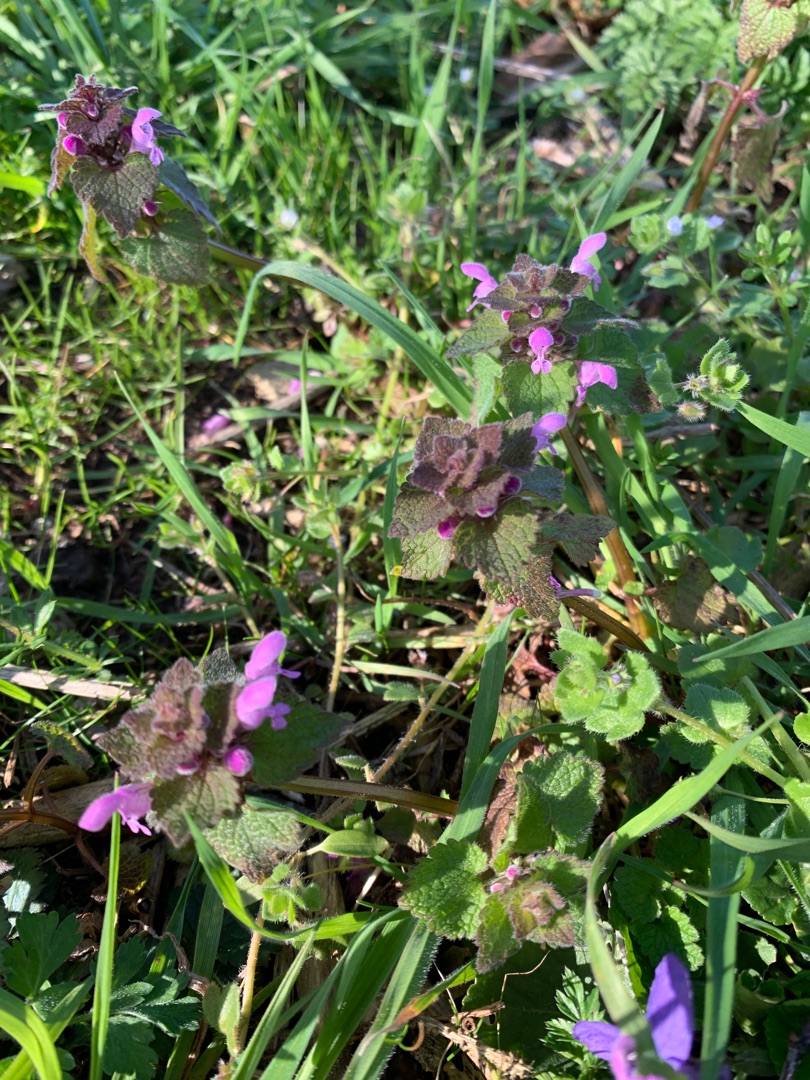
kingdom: Plantae
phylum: Tracheophyta
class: Magnoliopsida
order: Lamiales
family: Lamiaceae
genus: Lamium
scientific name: Lamium purpureum
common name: Rød tvetand
